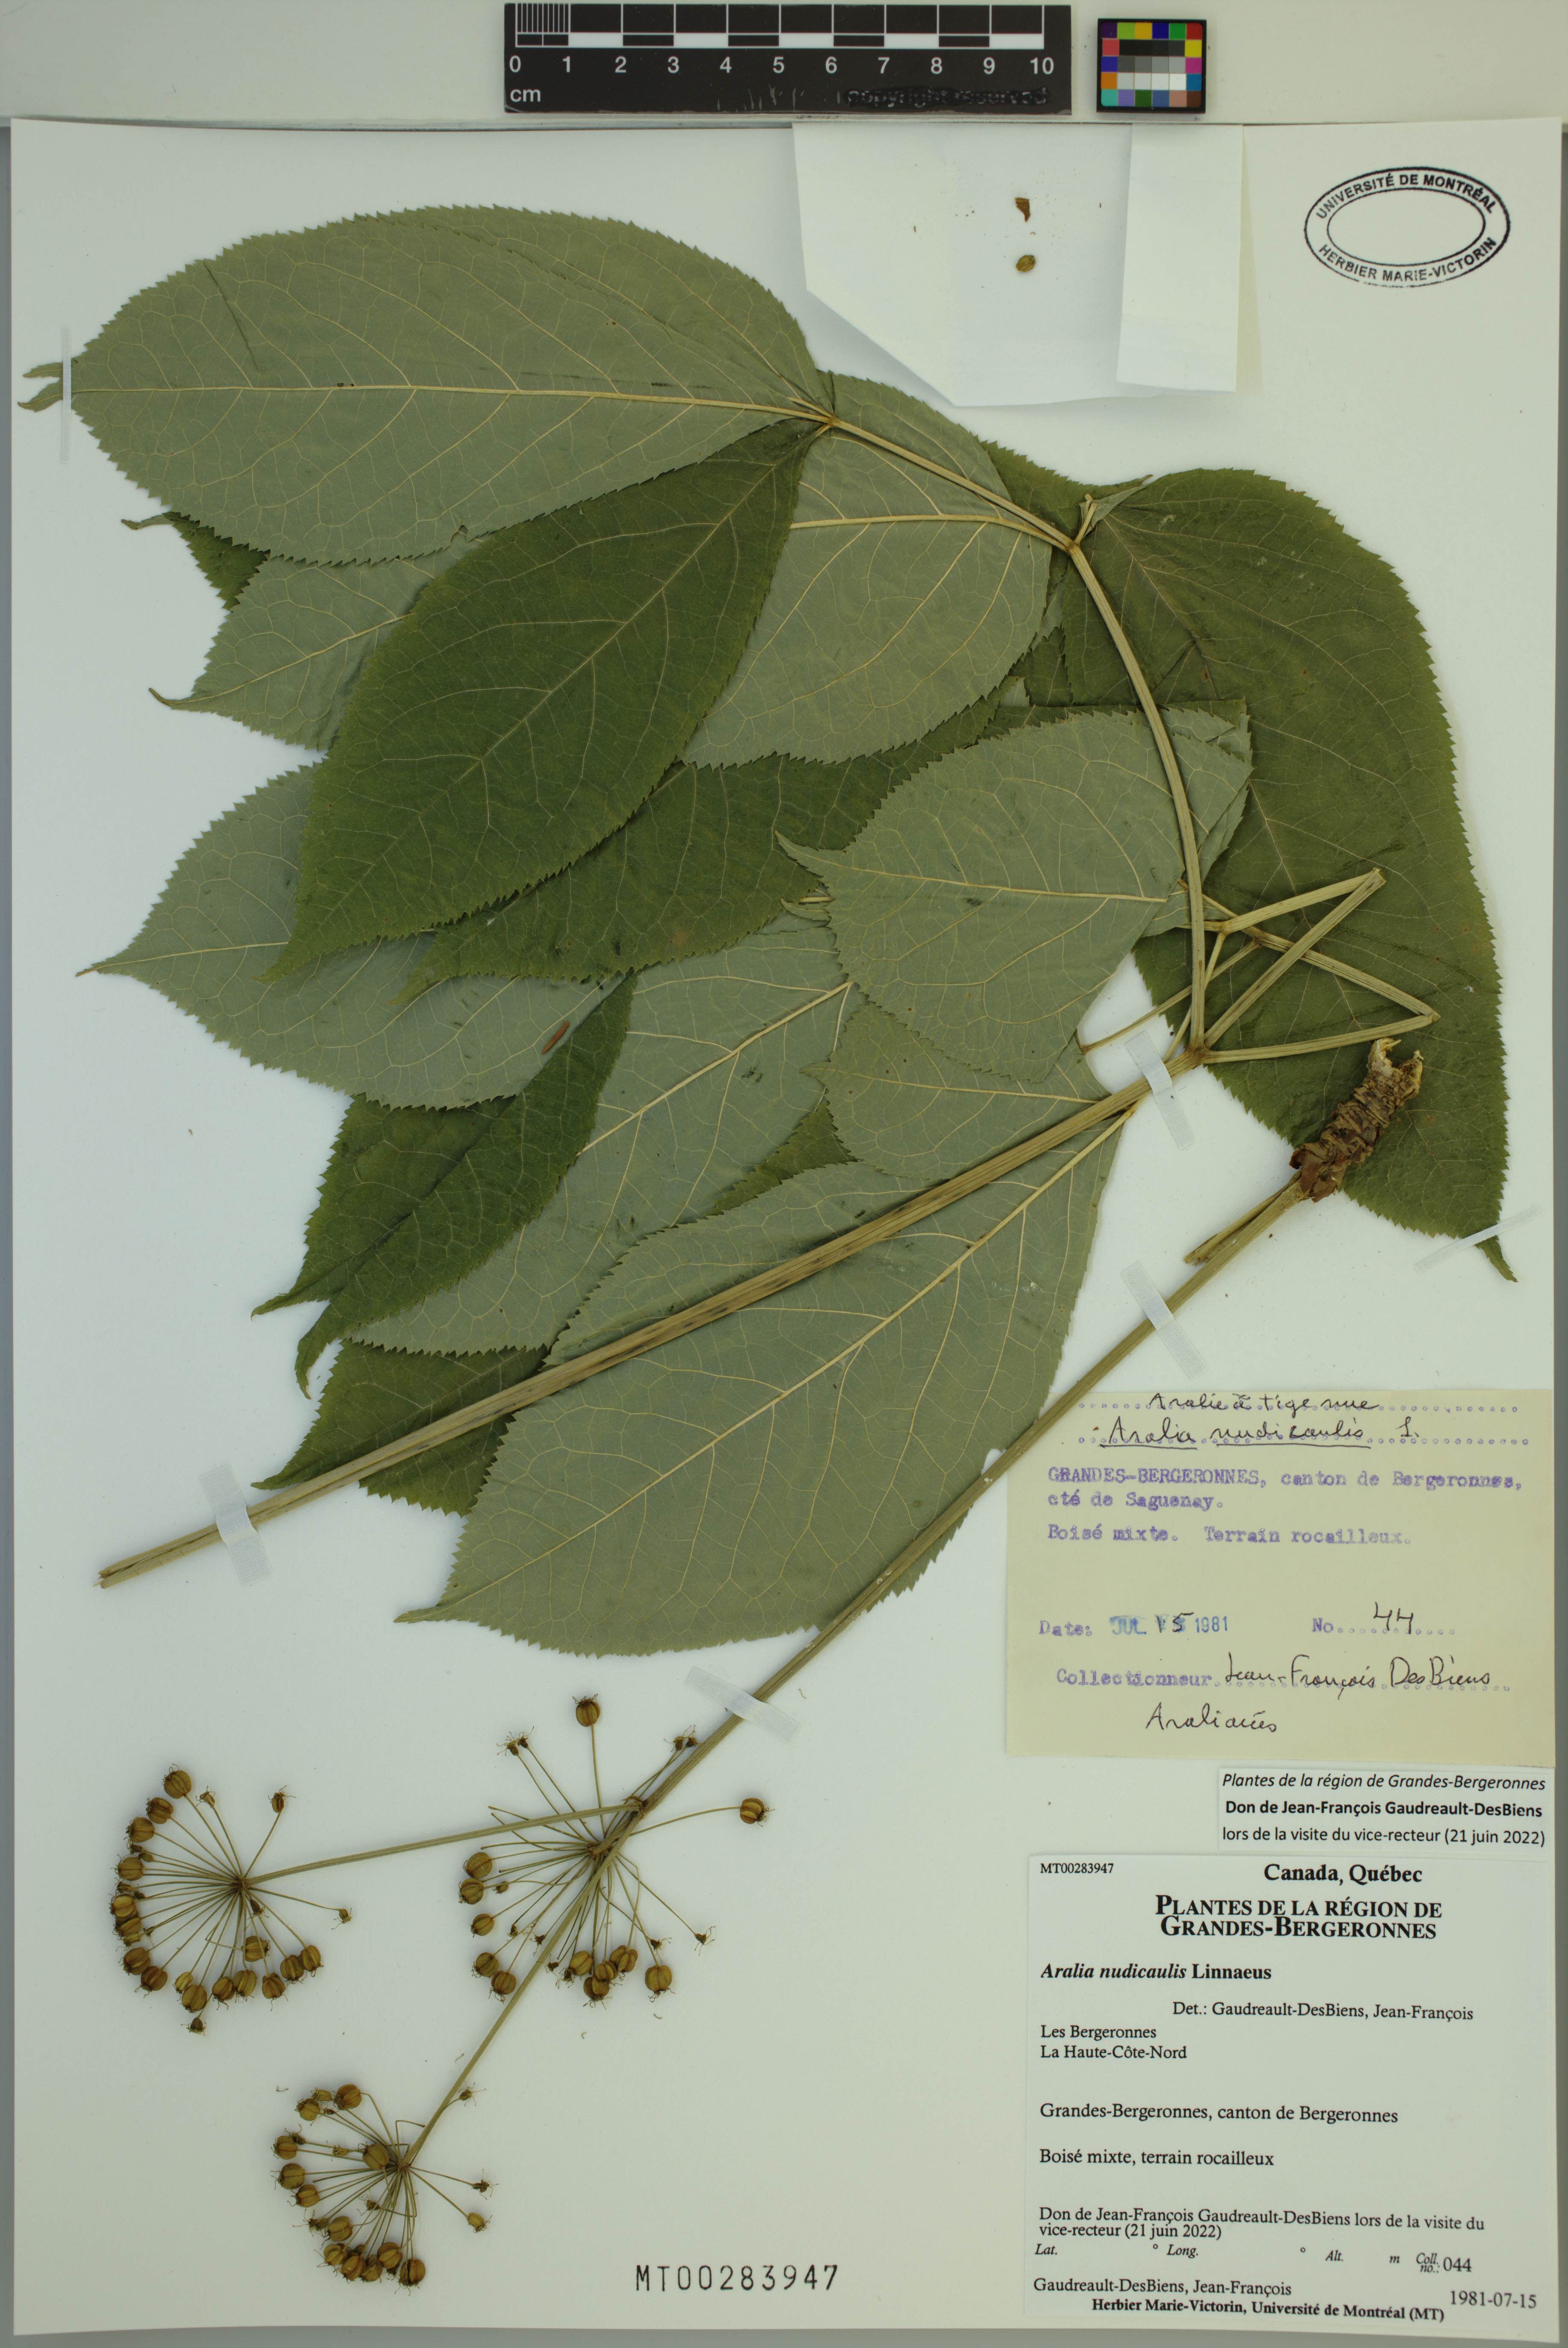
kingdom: Plantae
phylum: Tracheophyta
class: Magnoliopsida
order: Apiales
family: Araliaceae
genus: Aralia
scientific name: Aralia nudicaulis
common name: Wild sarsaparilla
